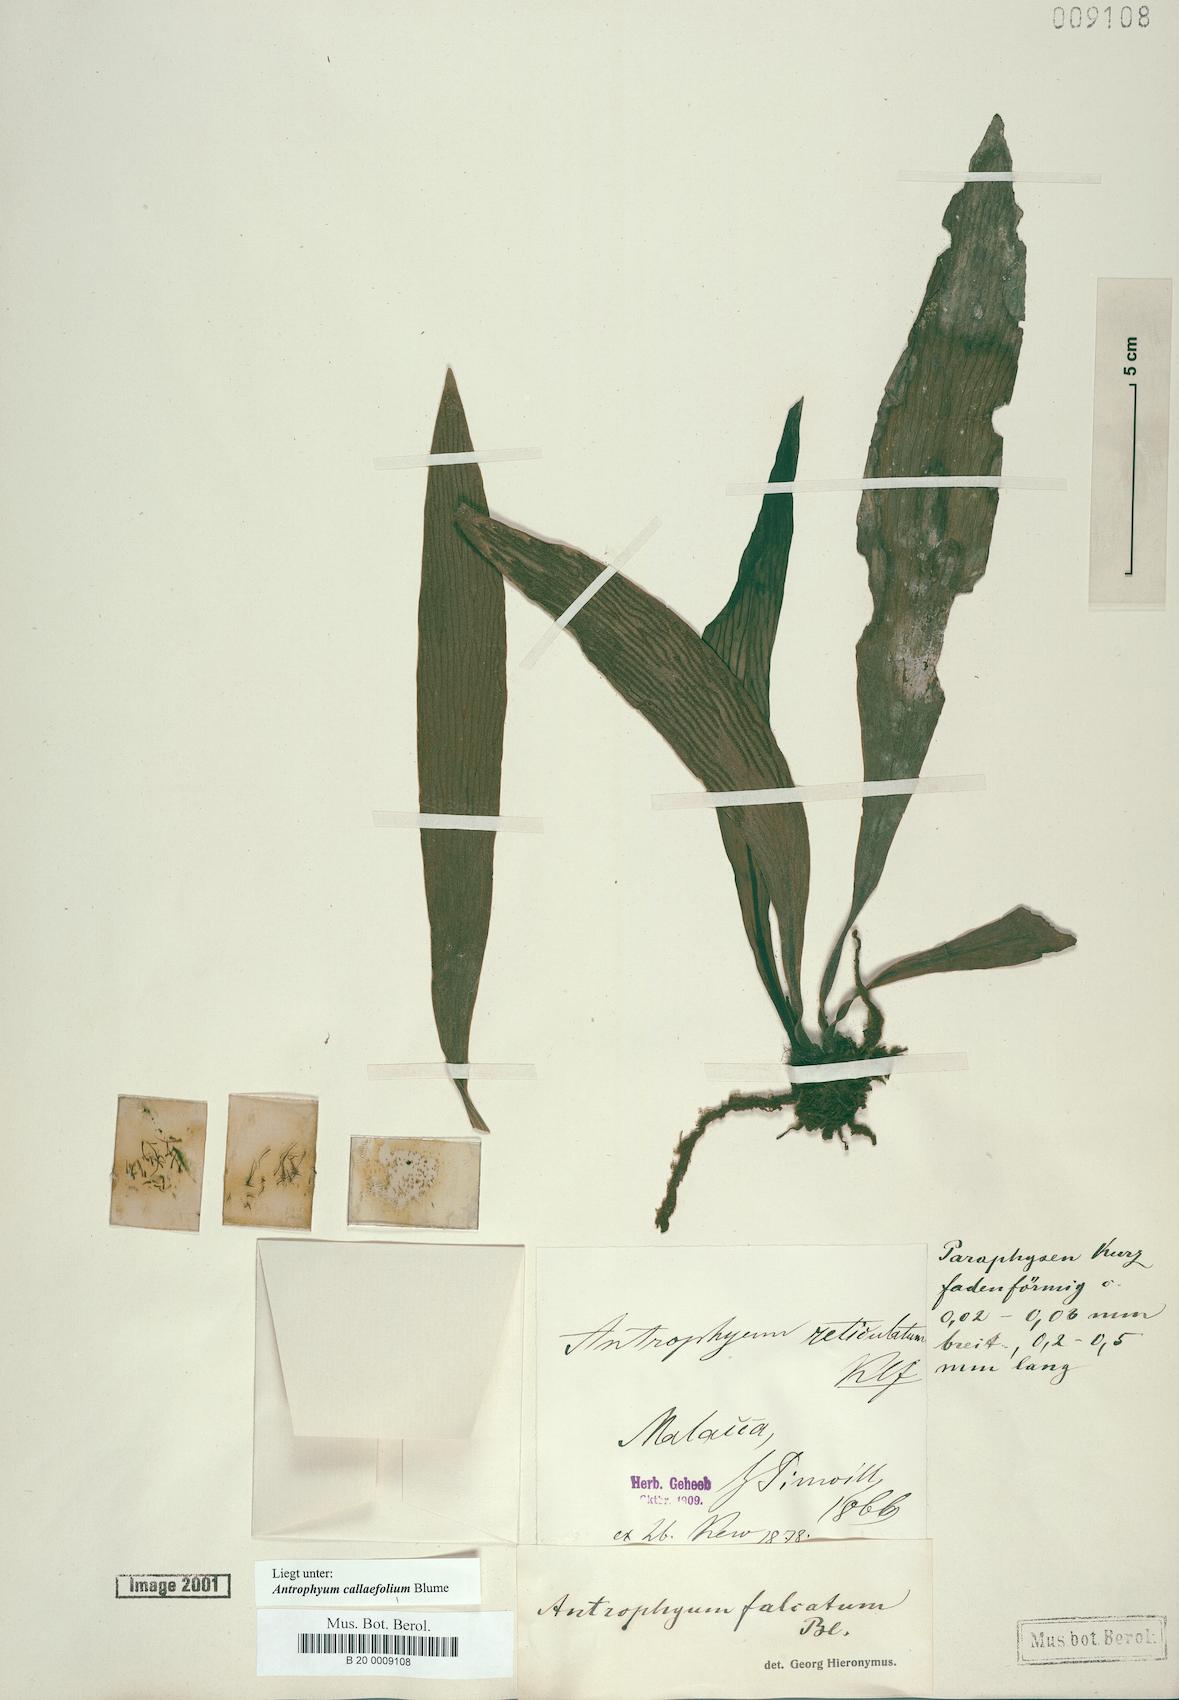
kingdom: Plantae
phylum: Tracheophyta
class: Polypodiopsida
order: Polypodiales
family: Pteridaceae
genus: Antrophyum
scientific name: Antrophyum callifolium
